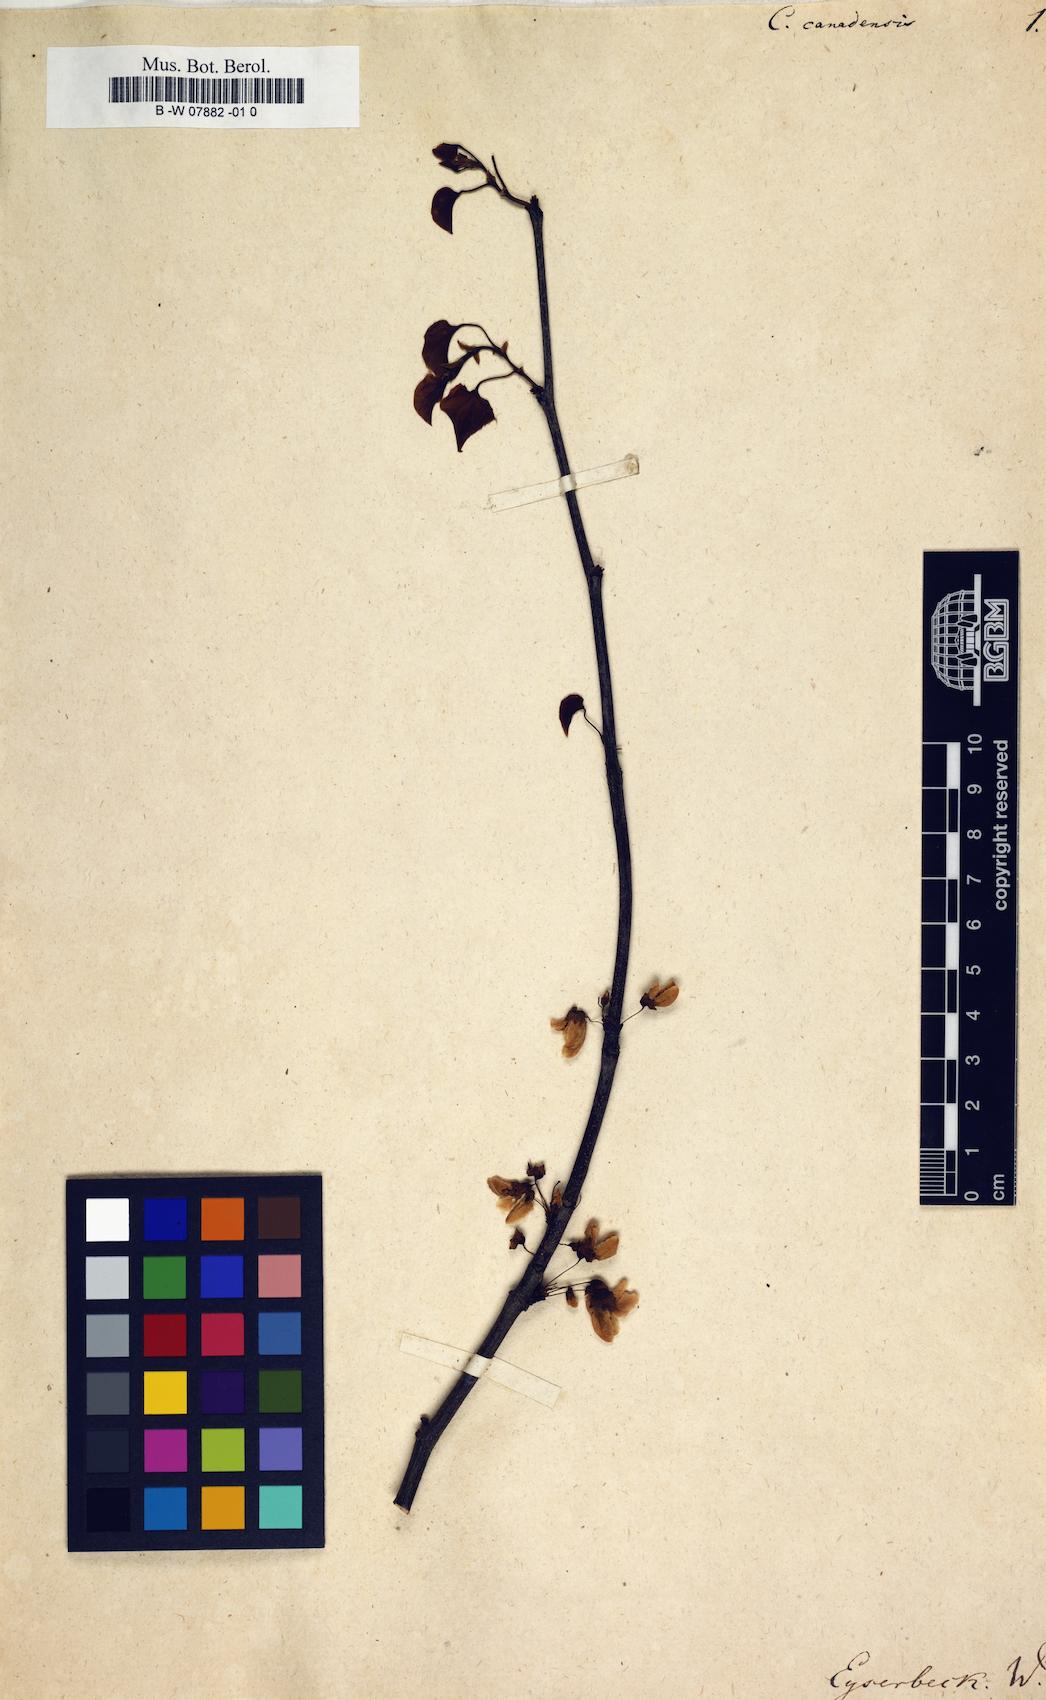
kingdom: Plantae
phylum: Tracheophyta
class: Magnoliopsida
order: Fabales
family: Fabaceae
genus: Cercis
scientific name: Cercis canadensis
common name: Eastern redbud
